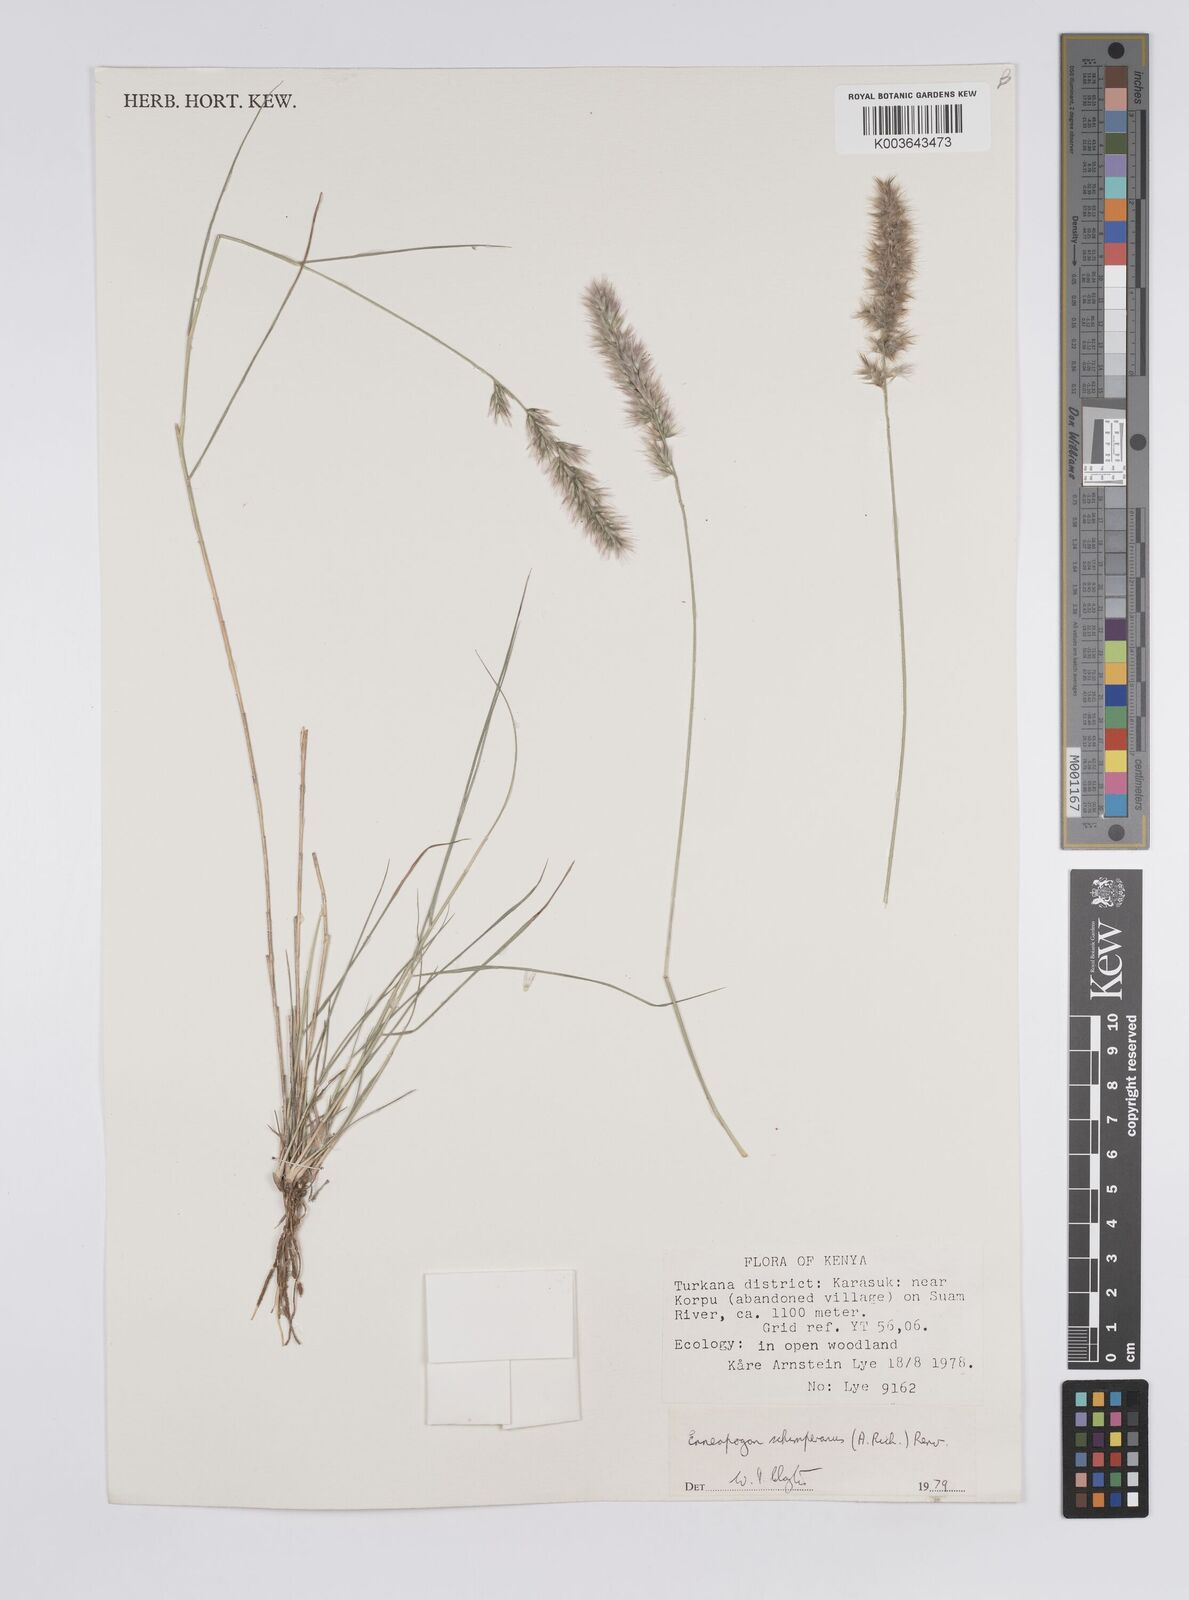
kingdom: Plantae
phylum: Tracheophyta
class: Liliopsida
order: Poales
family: Poaceae
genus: Enneapogon
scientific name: Enneapogon persicus
